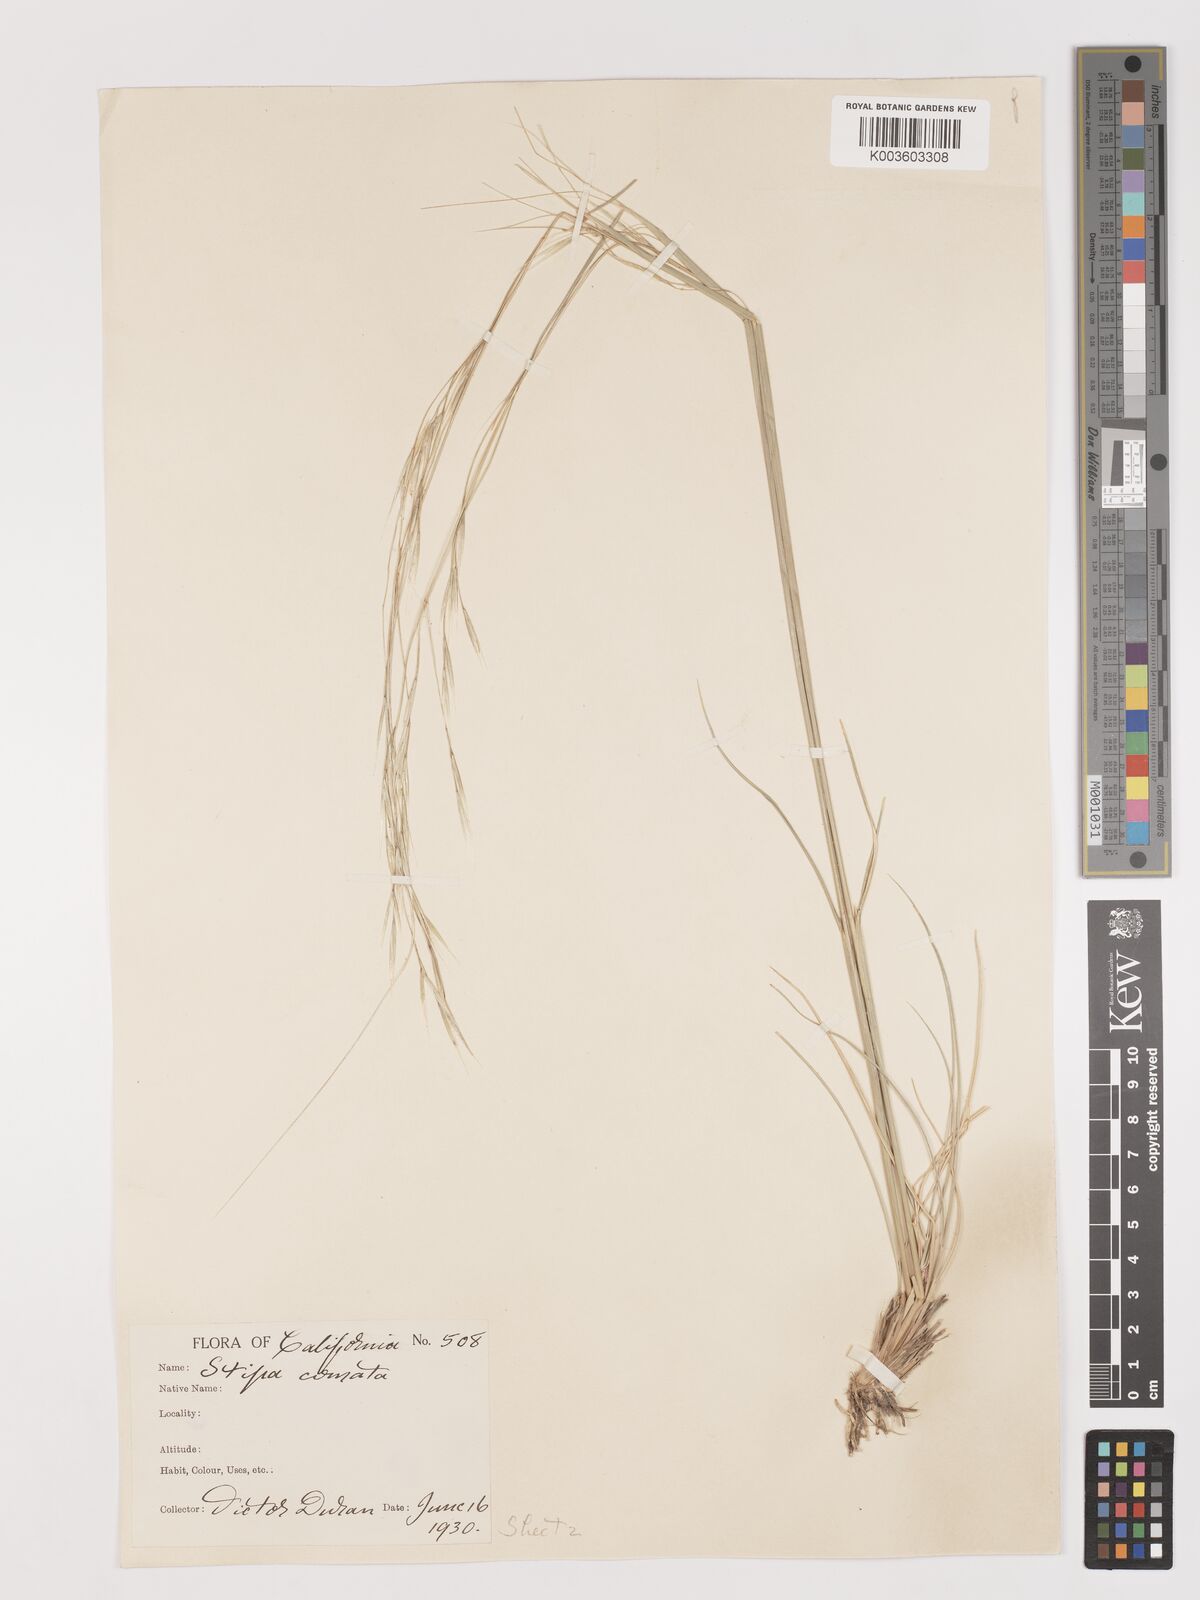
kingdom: Plantae
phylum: Tracheophyta
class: Liliopsida
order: Poales
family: Poaceae
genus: Stipa
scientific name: Stipa
